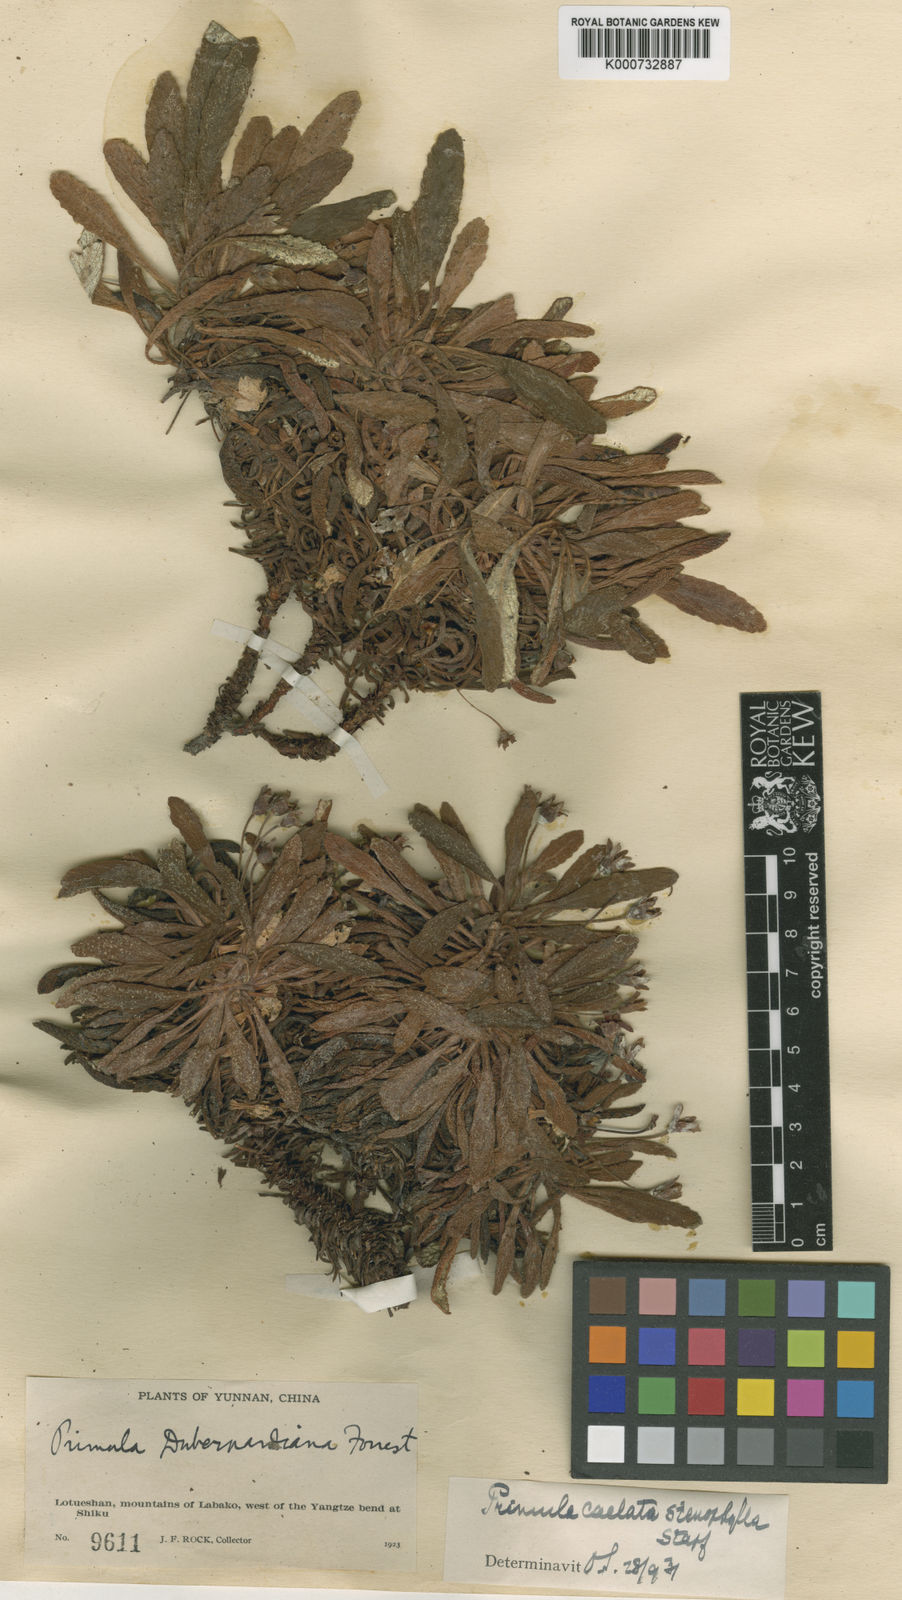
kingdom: Plantae
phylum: Tracheophyta
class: Magnoliopsida
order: Ericales
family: Primulaceae
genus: Primula
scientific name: Primula
